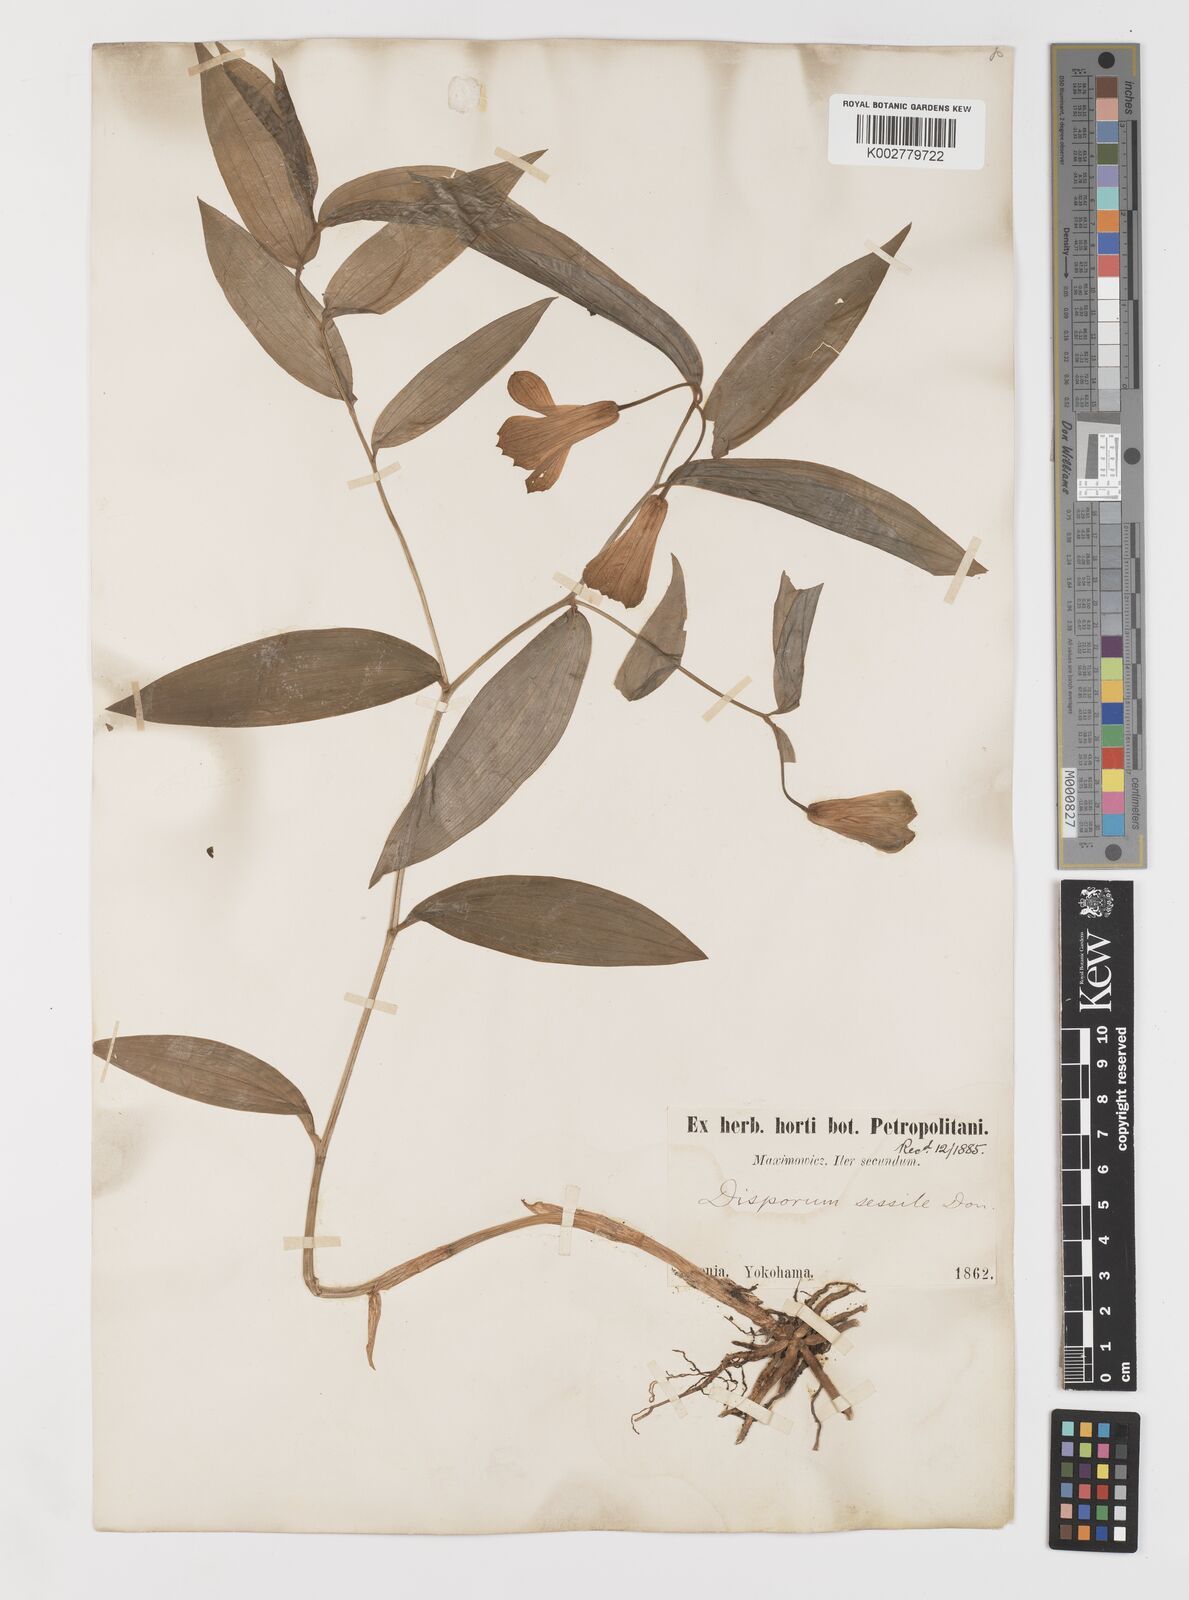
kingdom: Plantae
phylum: Tracheophyta
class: Liliopsida
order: Liliales
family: Colchicaceae
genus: Disporum
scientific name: Disporum sessile
